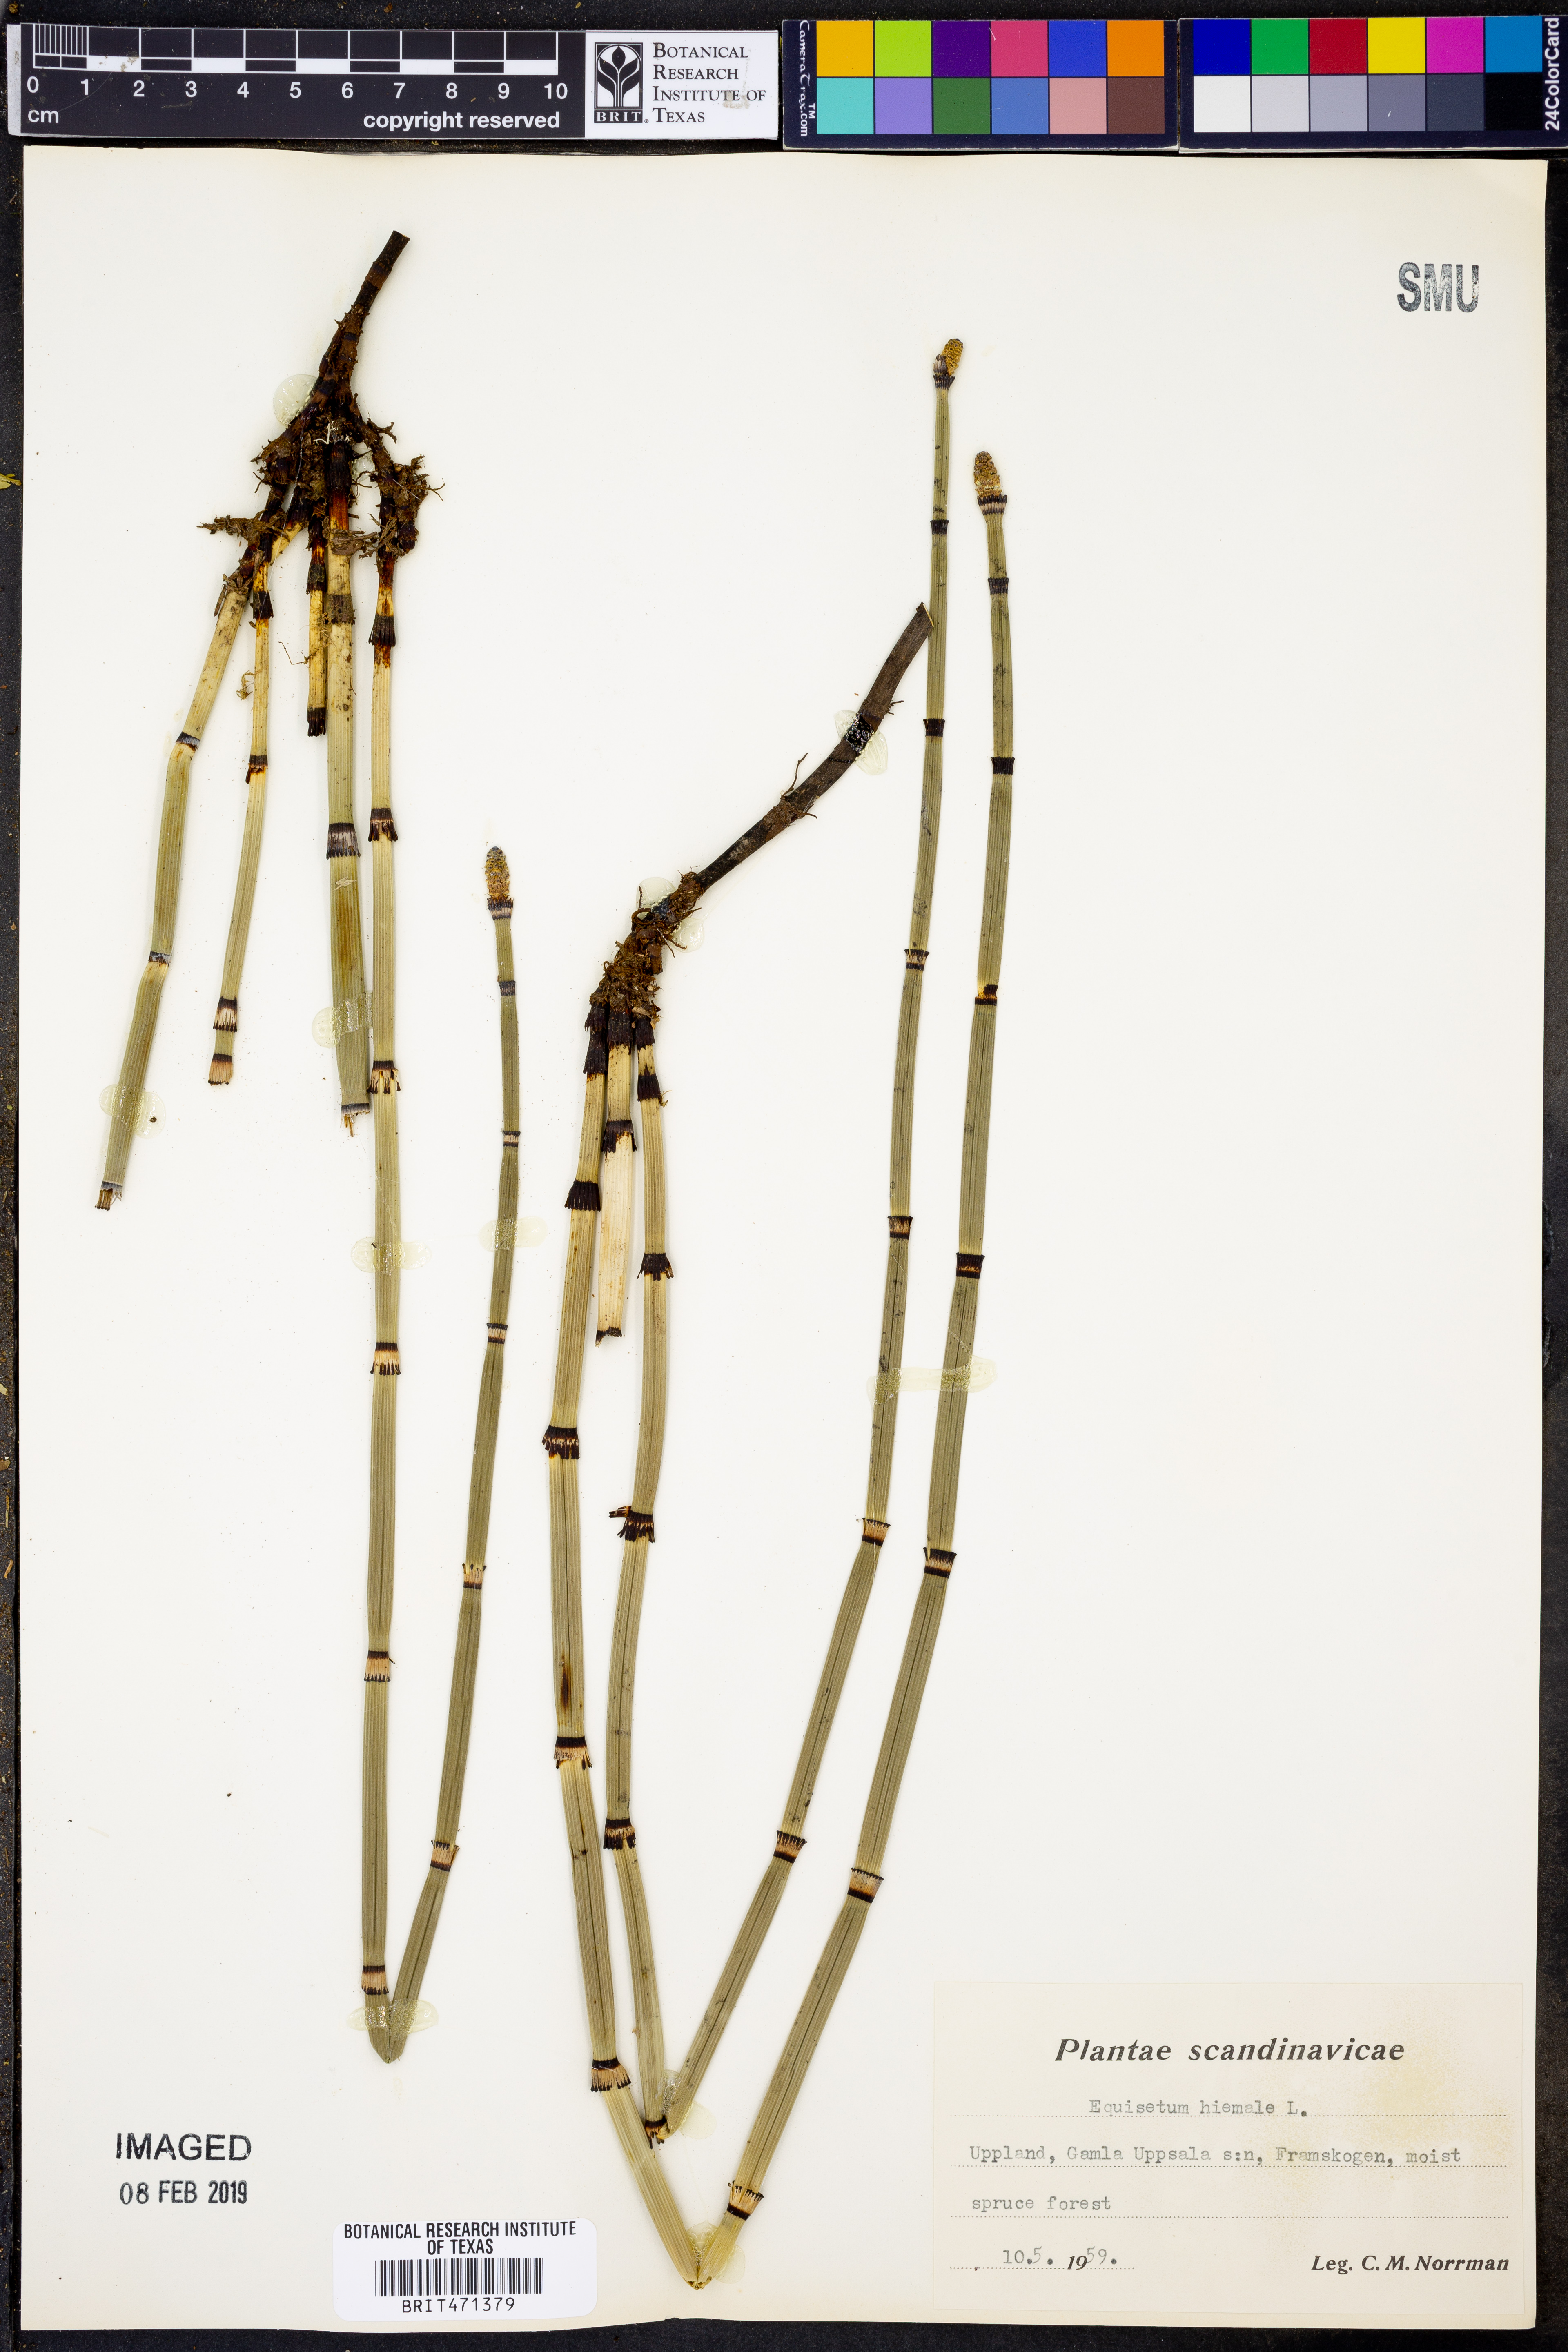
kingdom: Plantae
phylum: Tracheophyta
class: Polypodiopsida
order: Equisetales
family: Equisetaceae
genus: Equisetum
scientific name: Equisetum hyemale
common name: Rough horsetail
